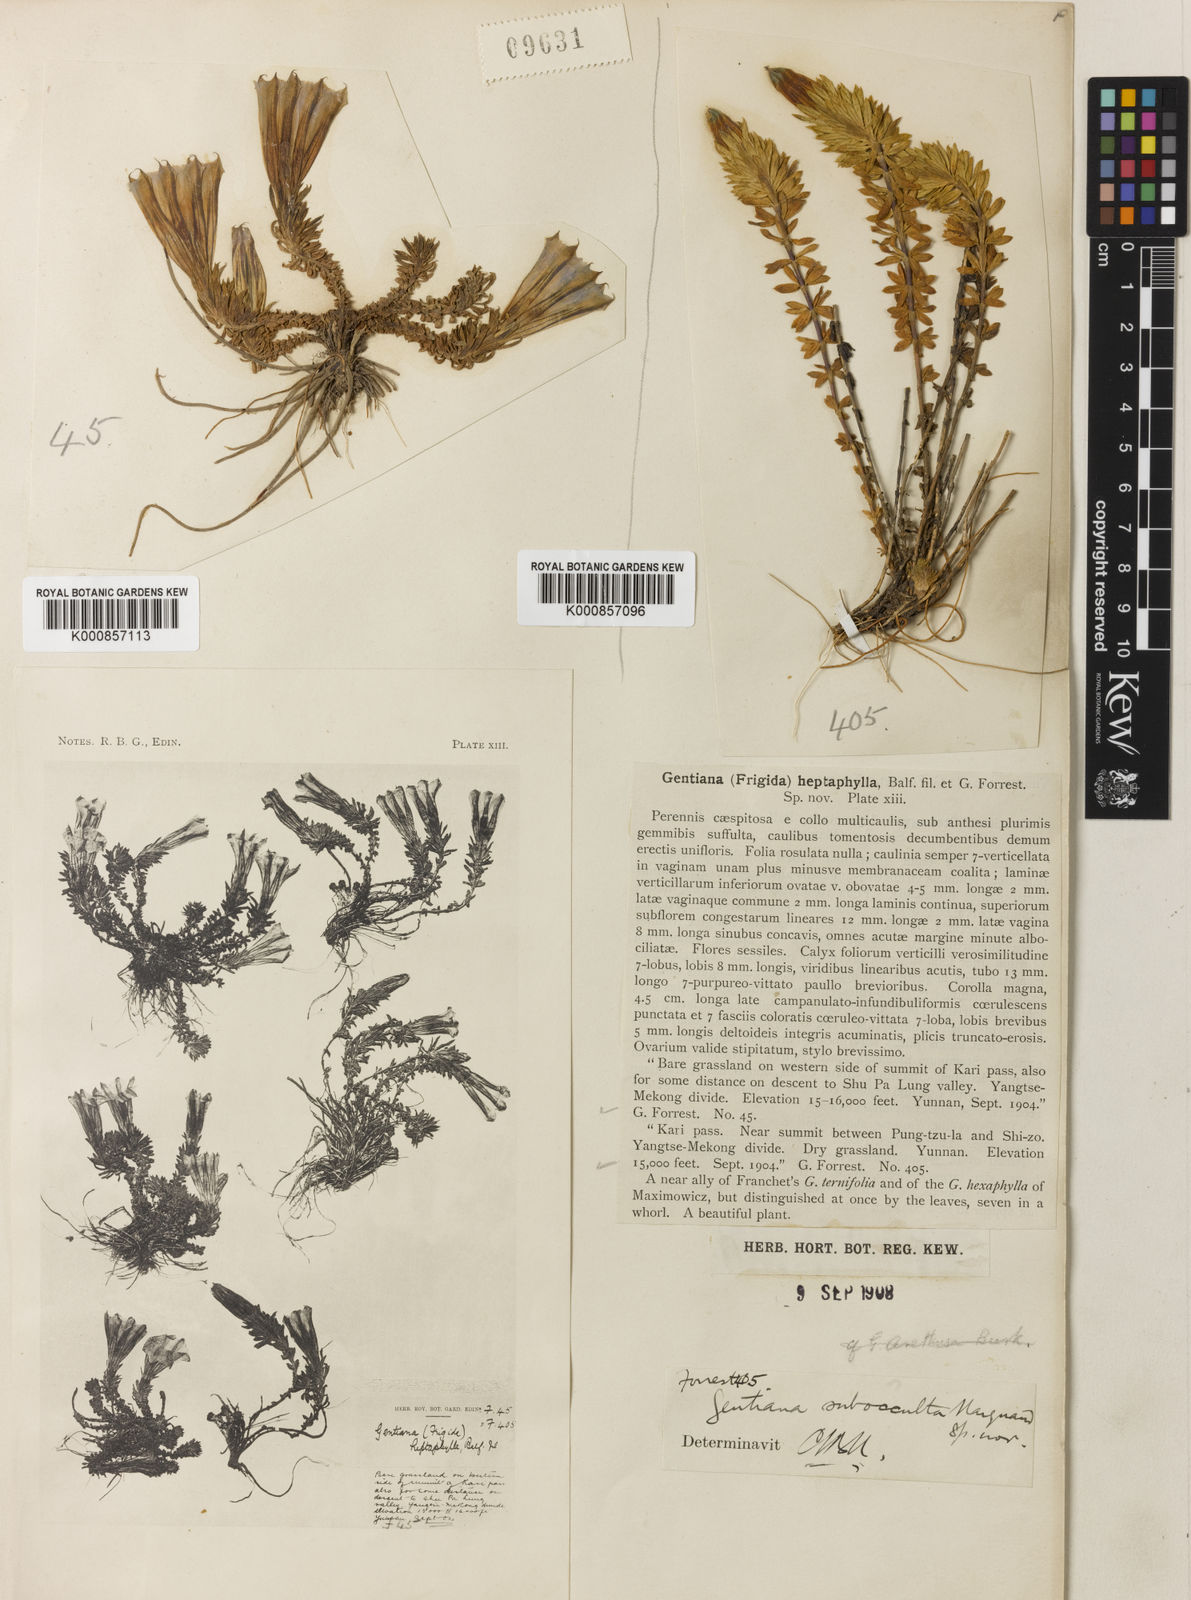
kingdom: Plantae
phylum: Tracheophyta
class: Magnoliopsida
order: Gentianales
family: Gentianaceae
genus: Gentiana
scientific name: Gentiana arethusae
